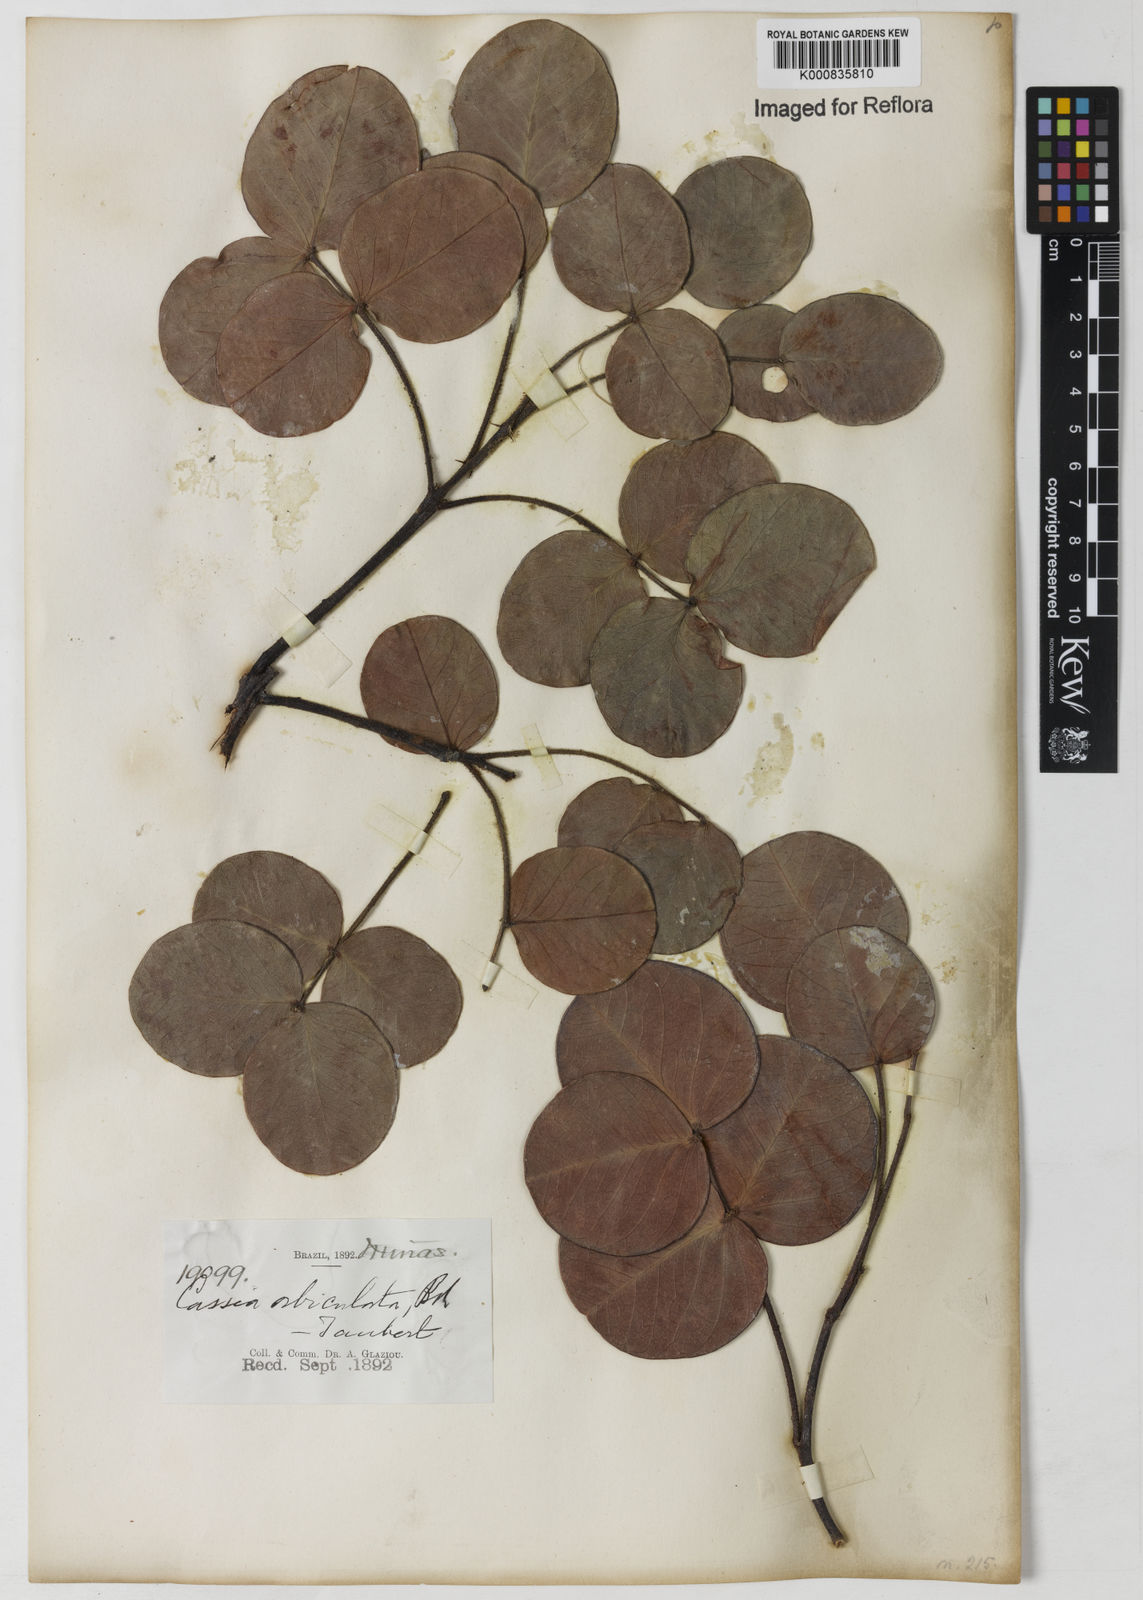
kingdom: Plantae
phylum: Tracheophyta
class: Magnoliopsida
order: Fabales
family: Fabaceae
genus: Chamaecrista
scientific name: Chamaecrista orbiculata
